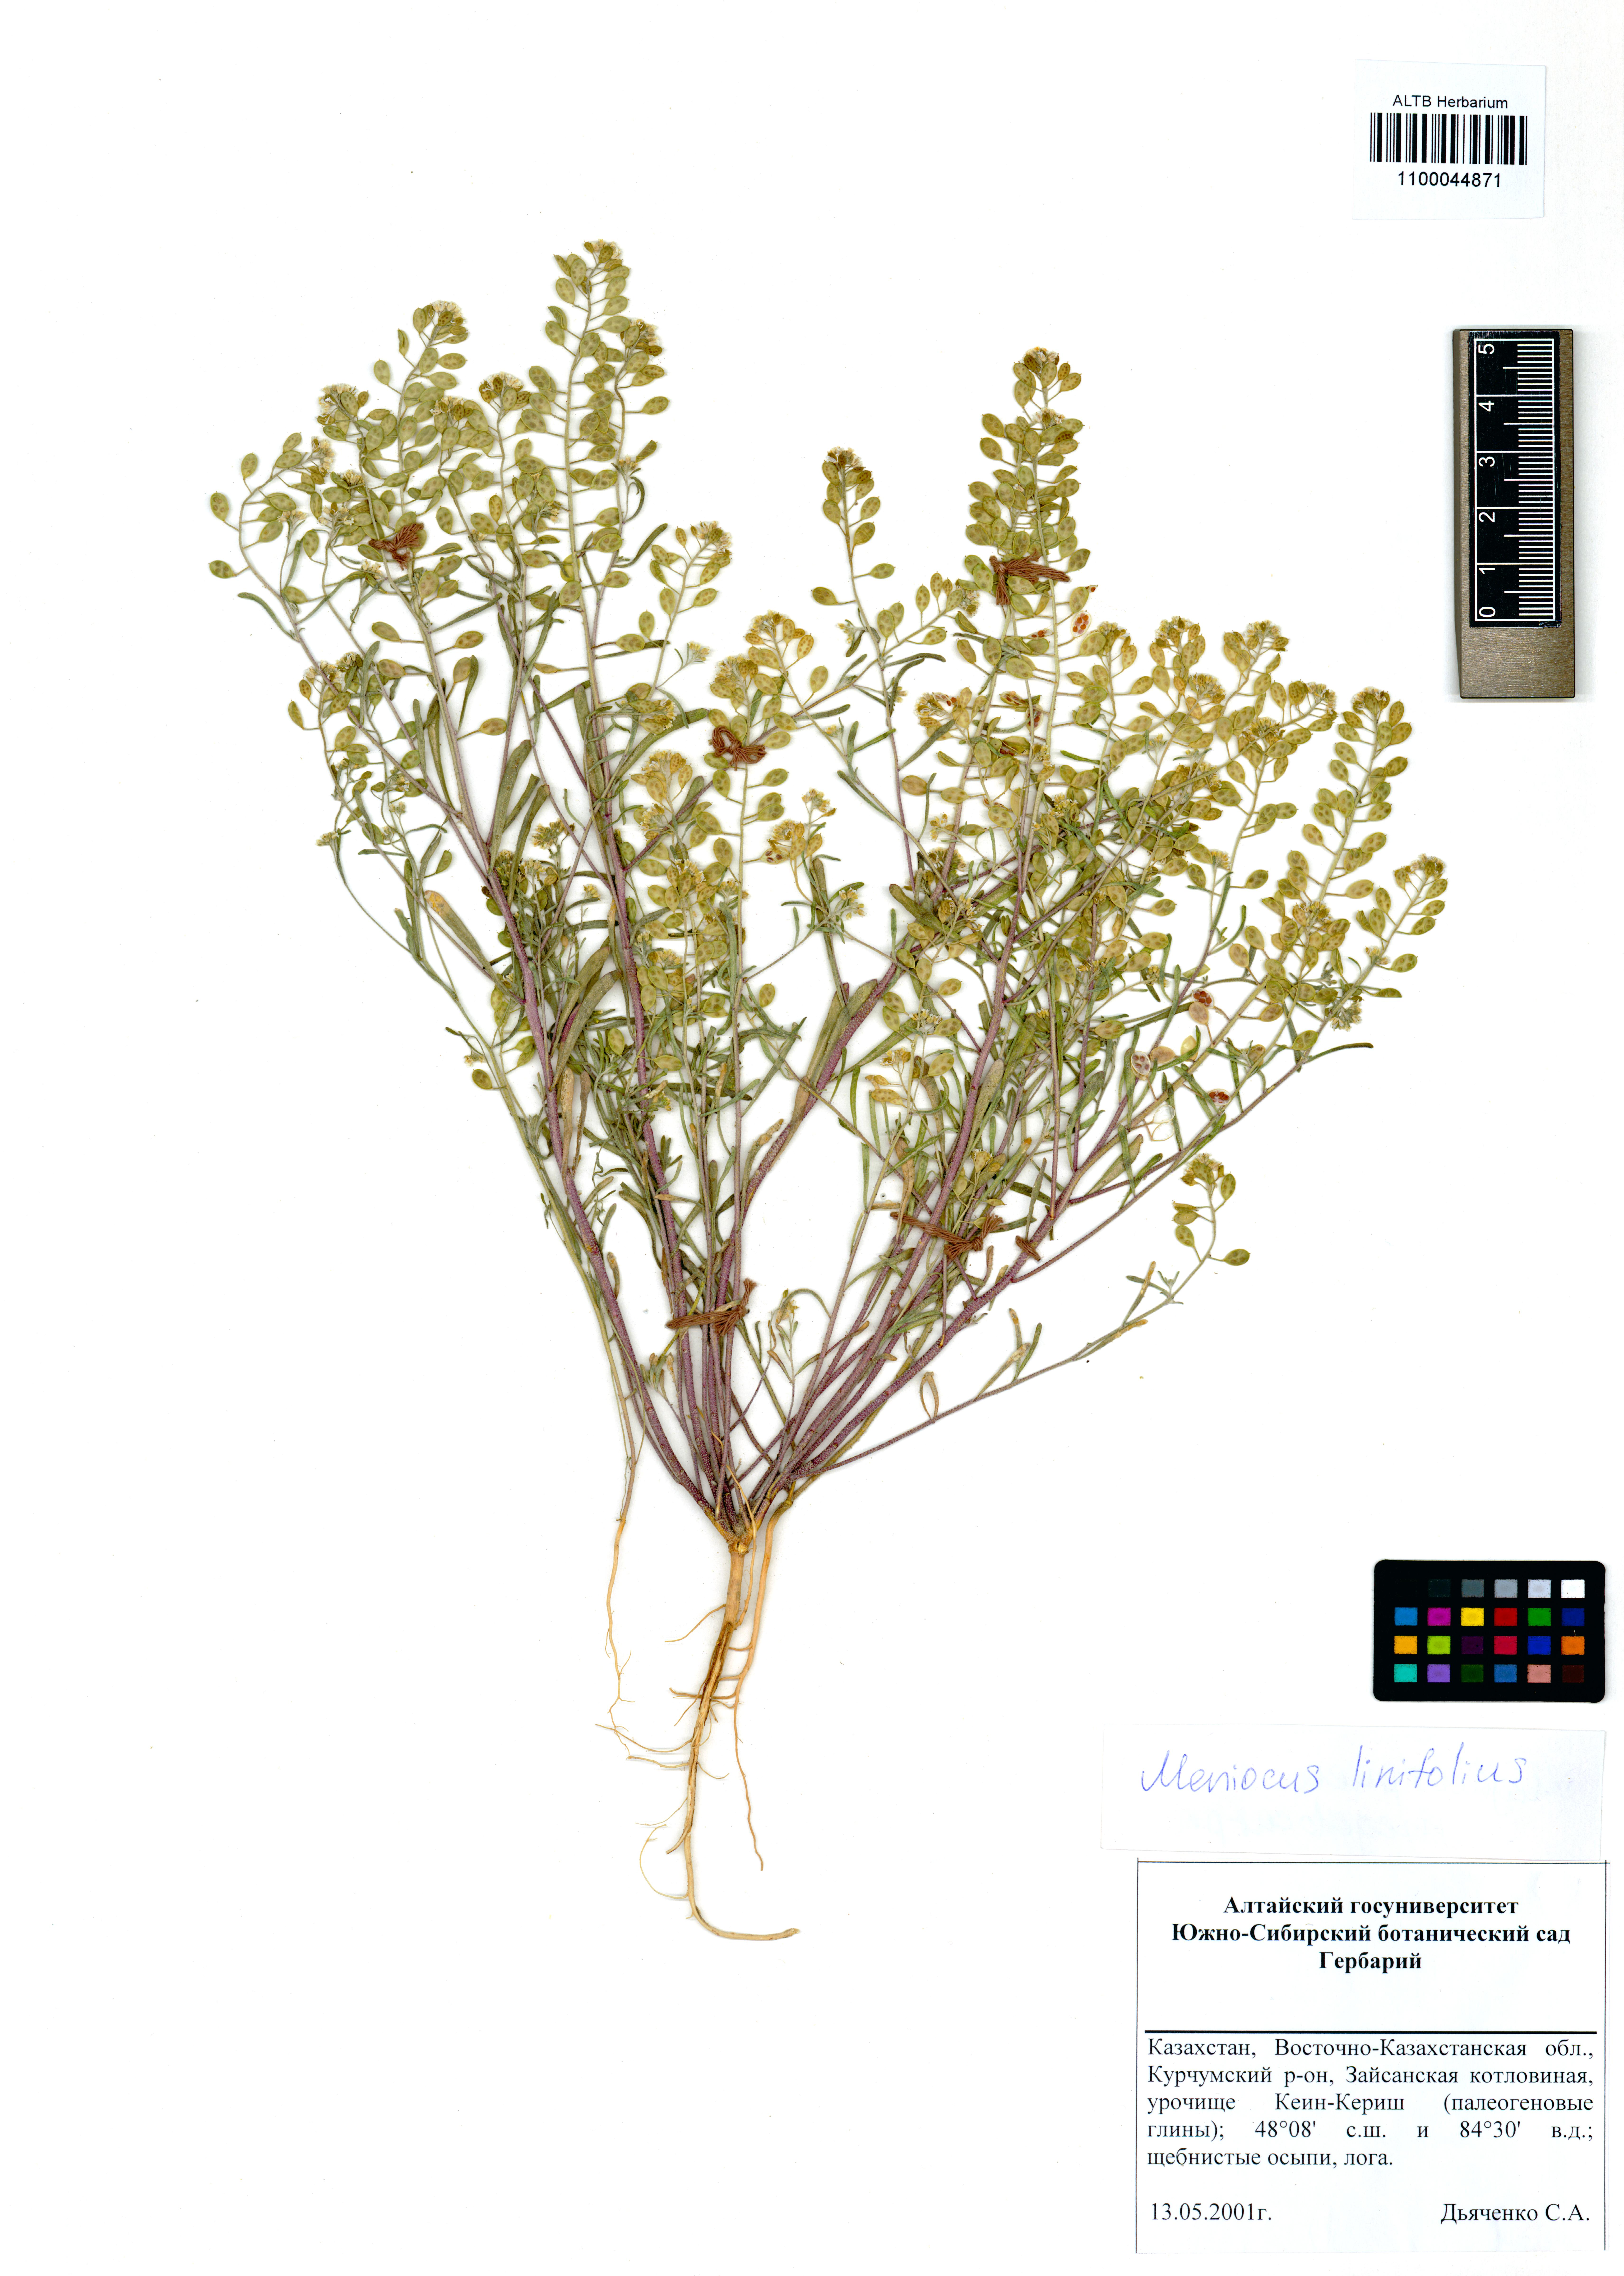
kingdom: Plantae
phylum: Tracheophyta
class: Magnoliopsida
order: Brassicales
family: Brassicaceae
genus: Meniocus
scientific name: Meniocus linifolius
